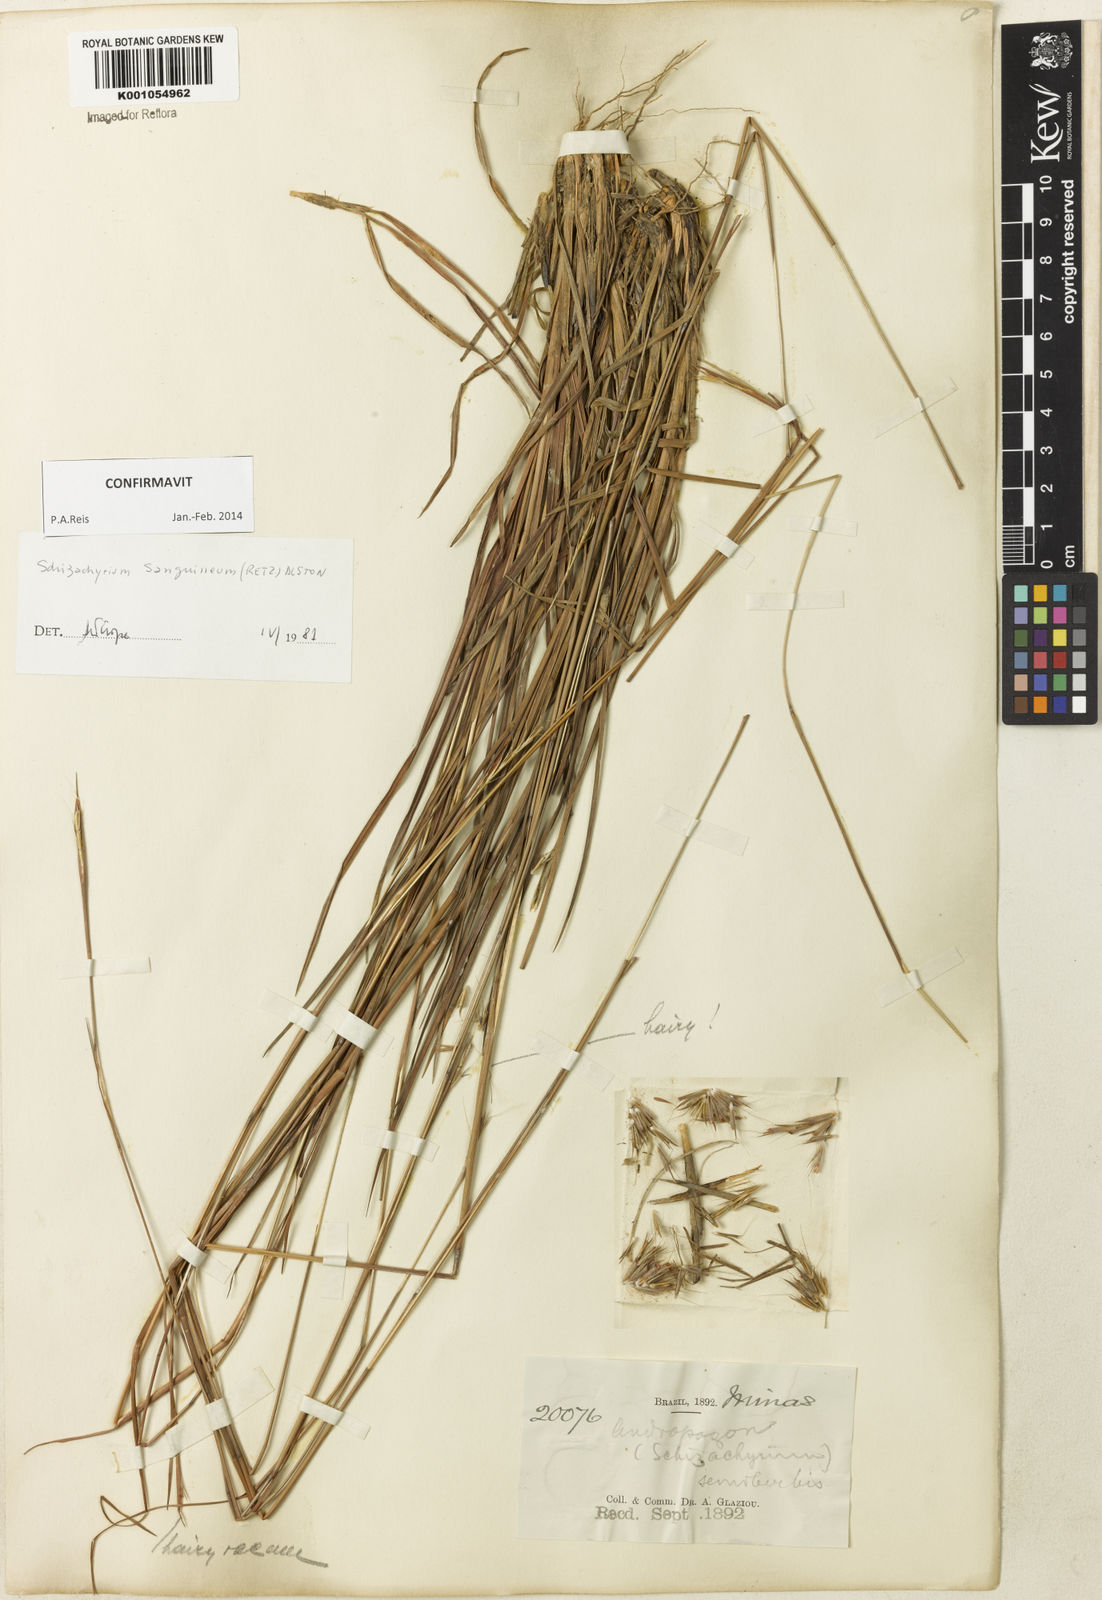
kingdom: Plantae
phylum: Tracheophyta
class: Liliopsida
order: Poales
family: Poaceae
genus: Schizachyrium
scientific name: Schizachyrium sanguineum
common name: Crimson bluestem
